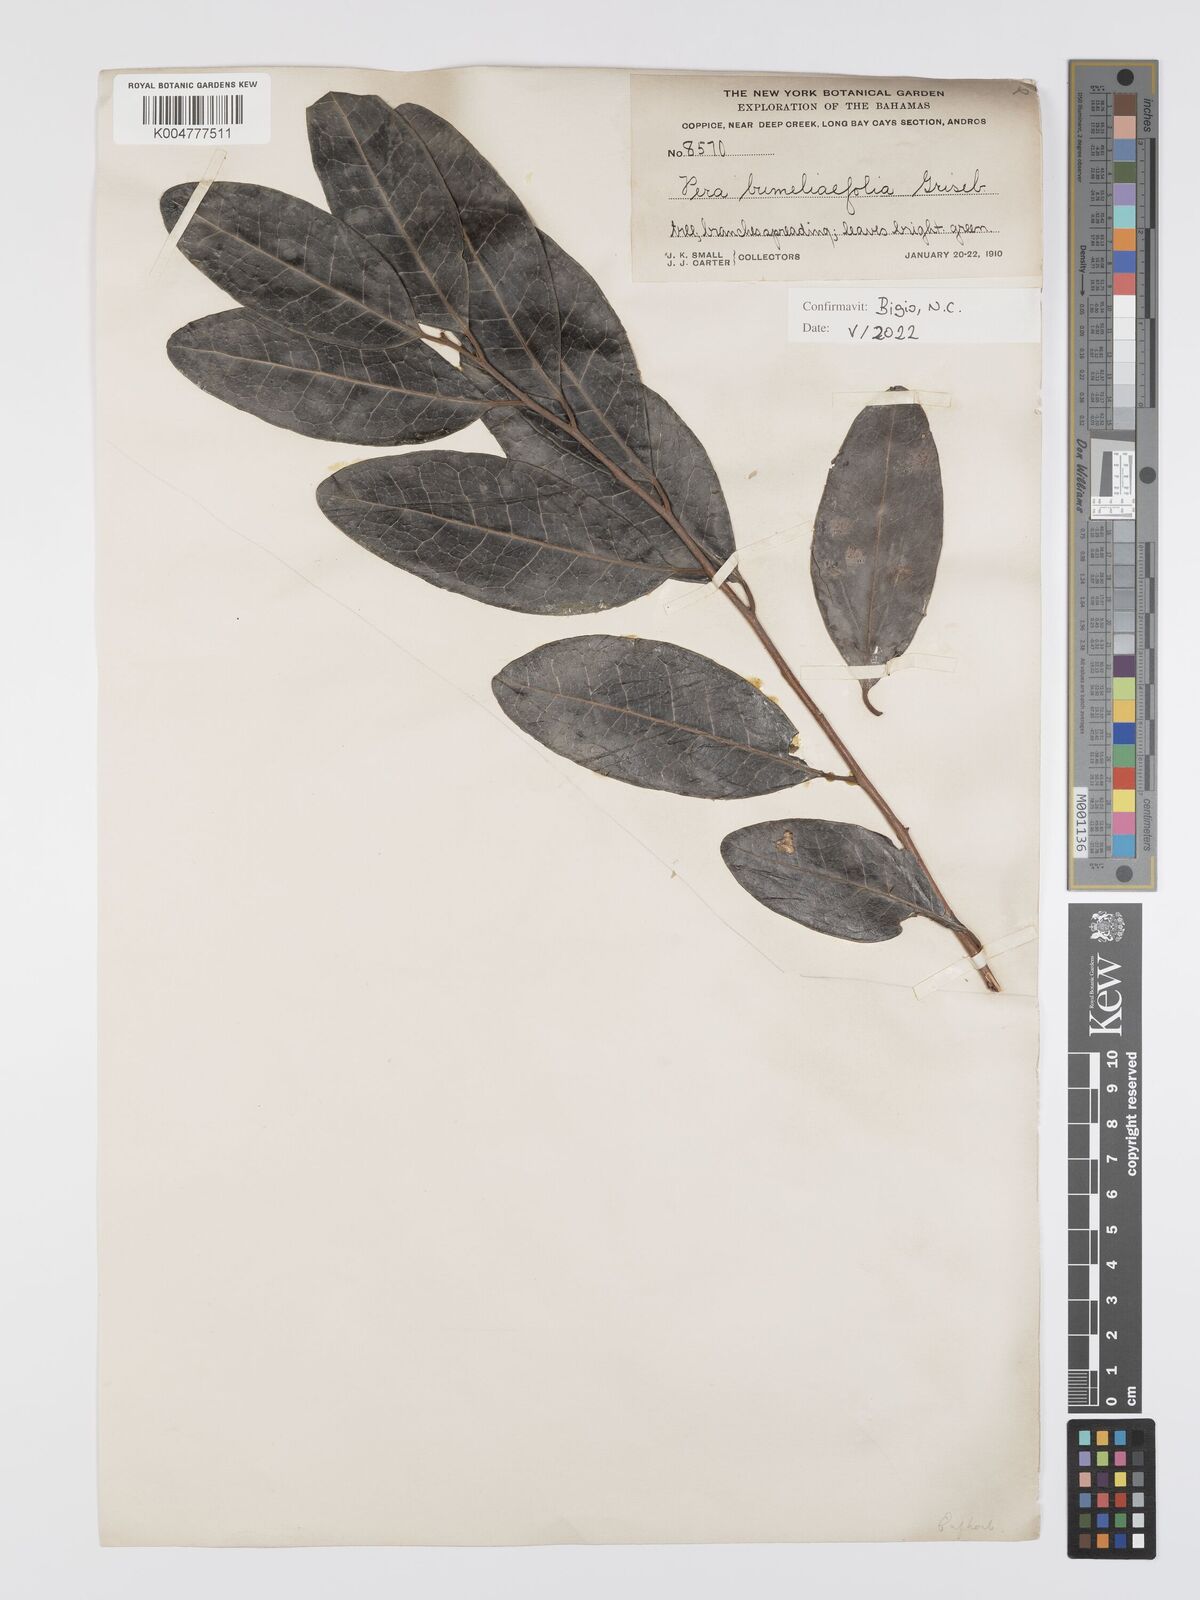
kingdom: Plantae
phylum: Tracheophyta
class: Magnoliopsida
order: Malpighiales
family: Peraceae
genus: Pera
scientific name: Pera
